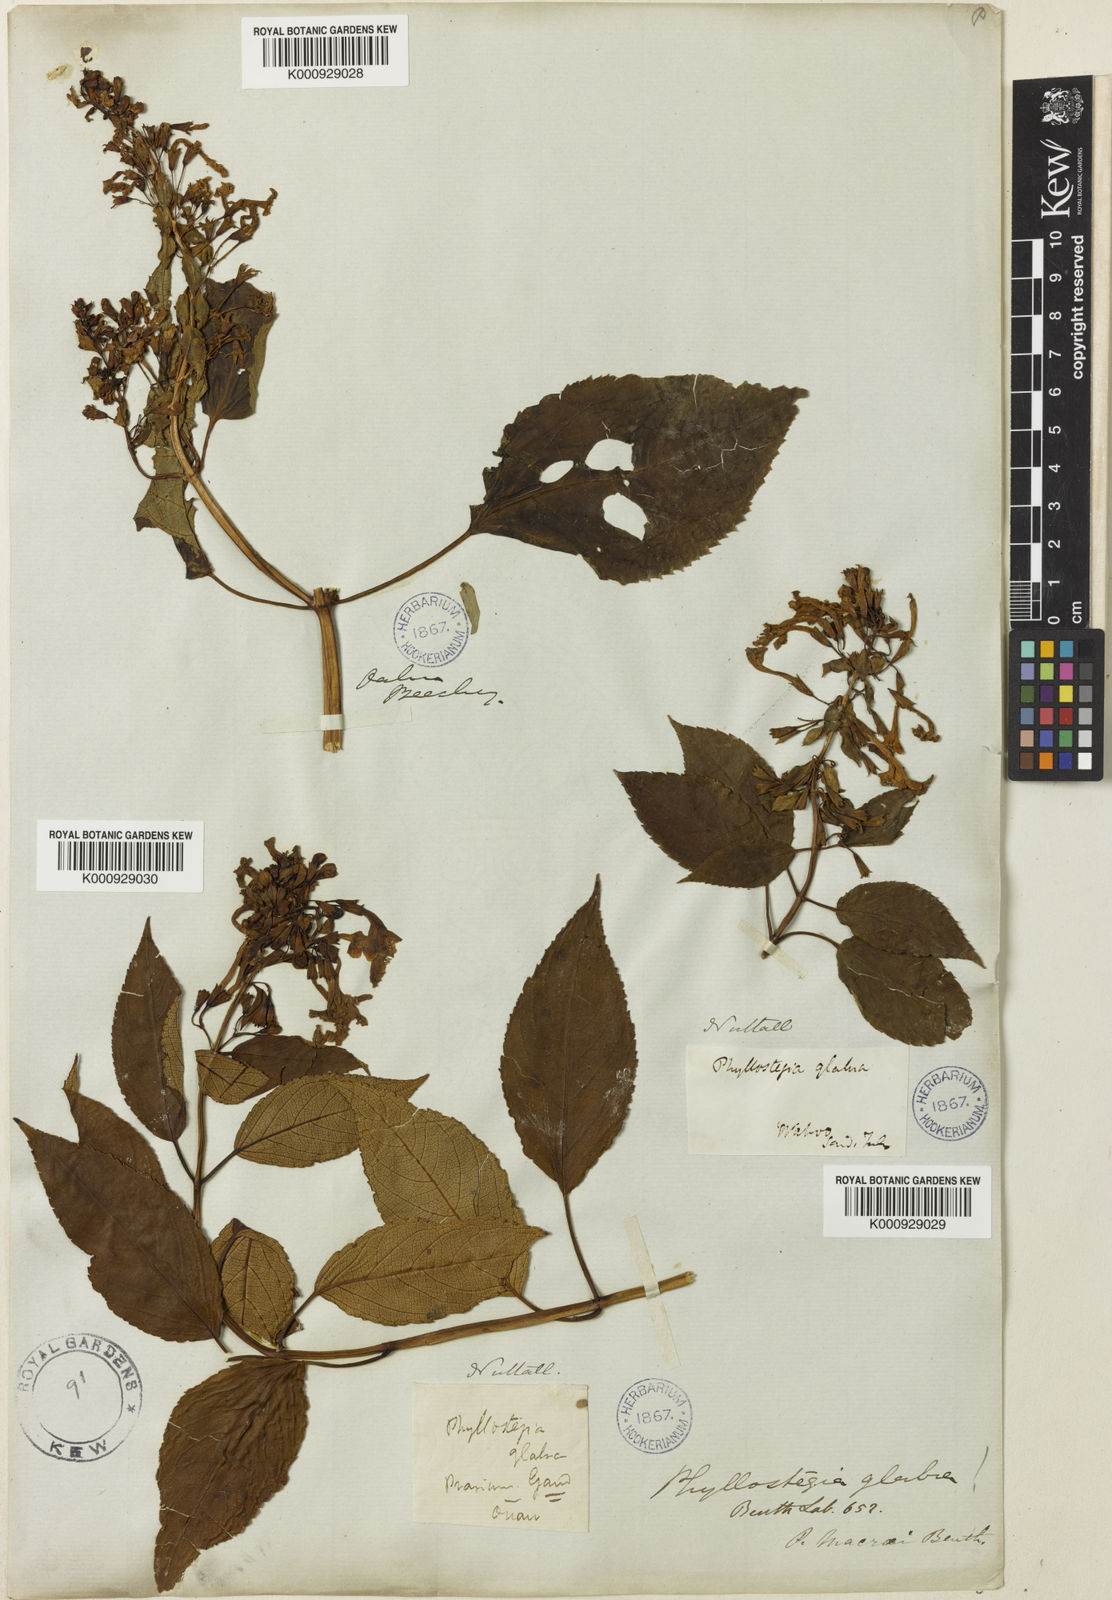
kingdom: Plantae
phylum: Tracheophyta
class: Magnoliopsida
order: Lamiales
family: Lamiaceae
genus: Phyllostegia
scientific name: Phyllostegia glabra
